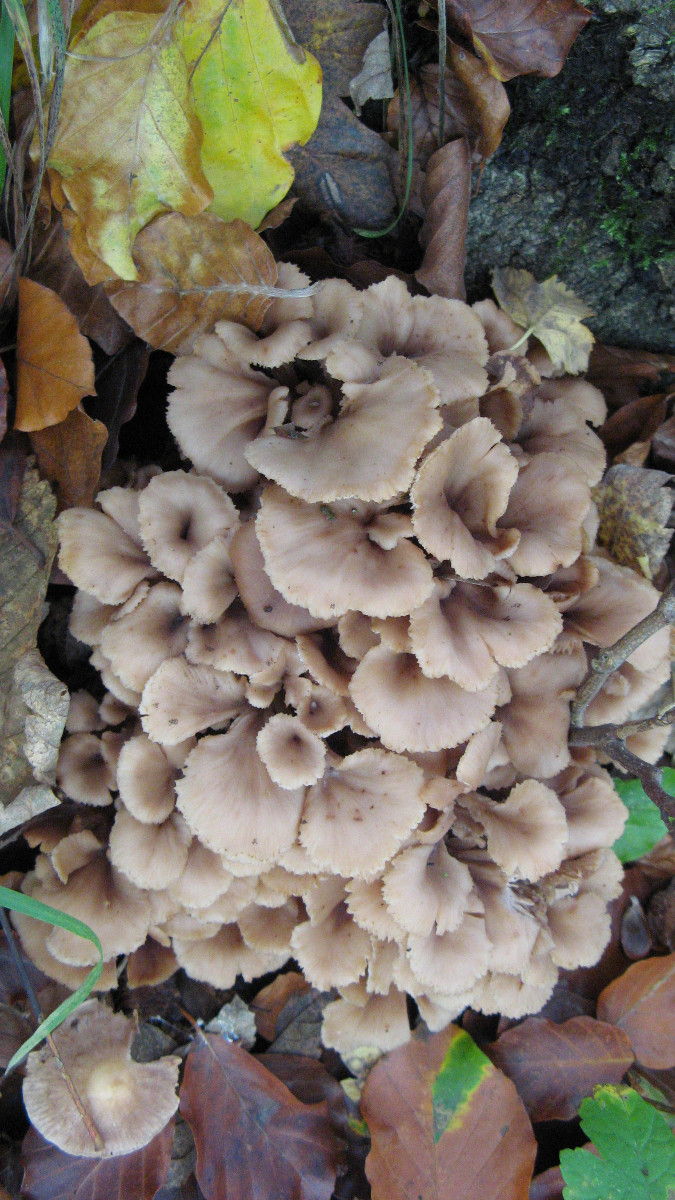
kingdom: Fungi
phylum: Basidiomycota
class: Agaricomycetes
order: Russulales
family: Auriscalpiaceae
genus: Lentinellus
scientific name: Lentinellus cochleatus
